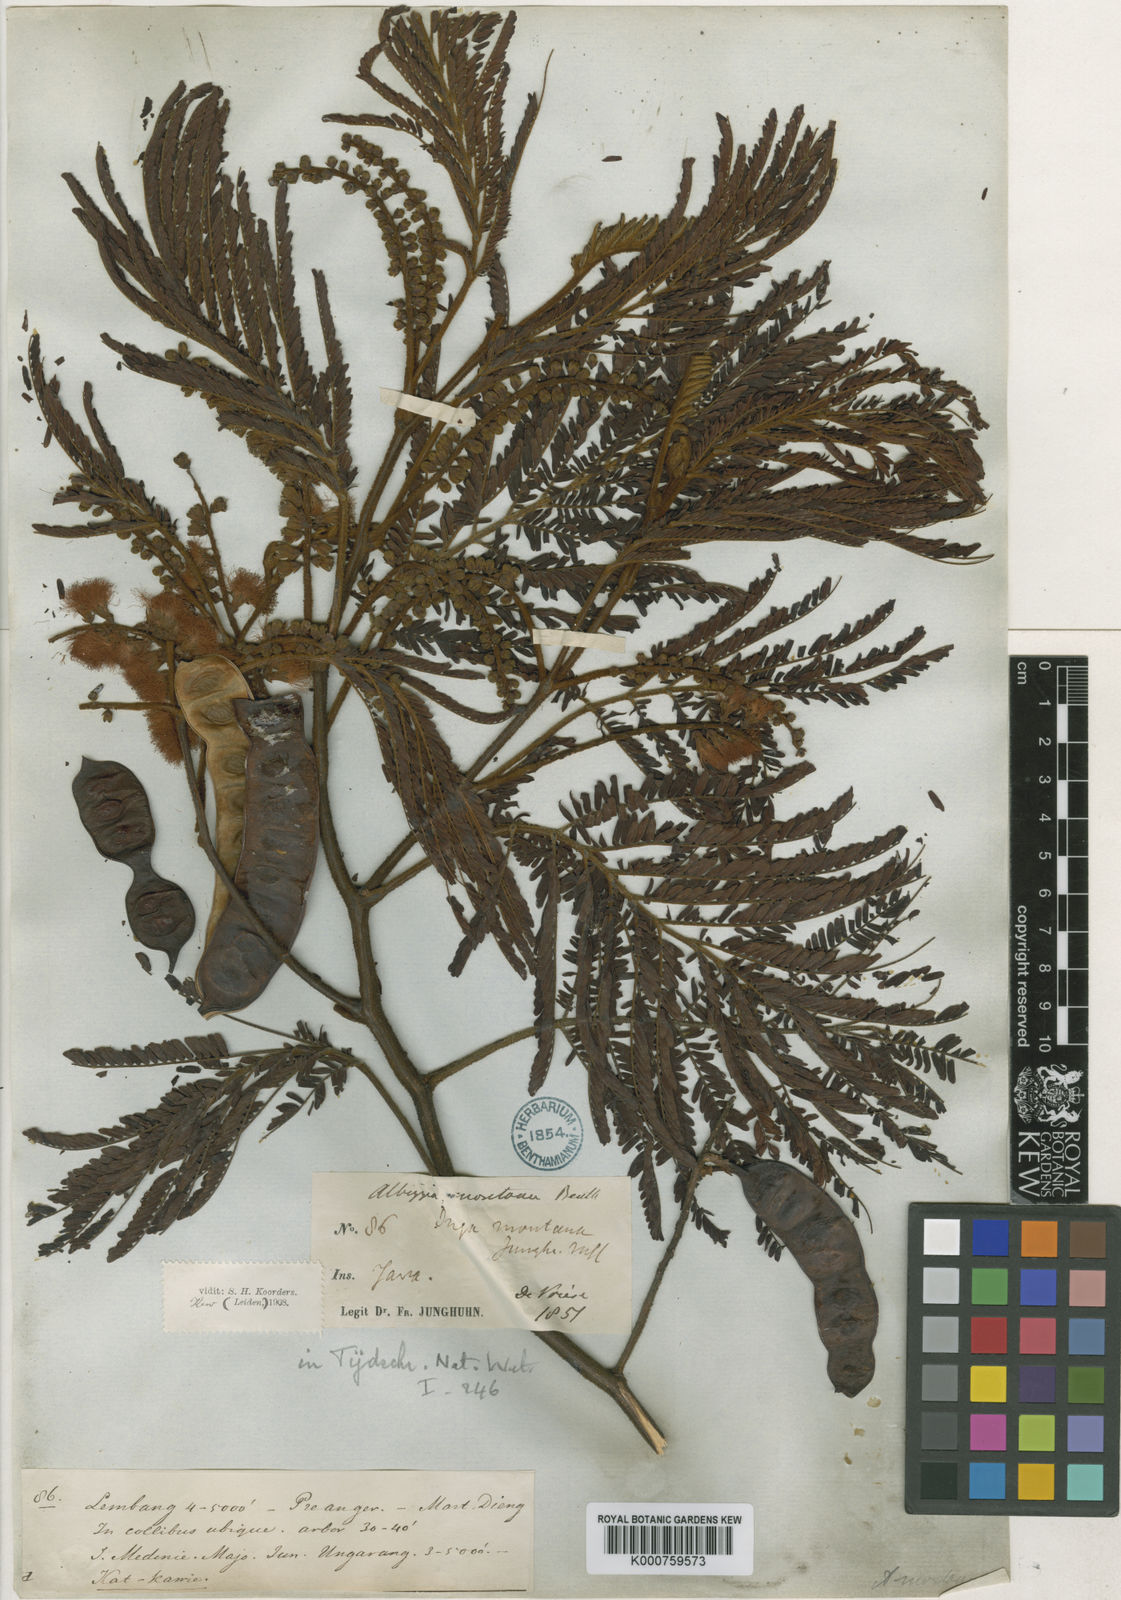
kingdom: Plantae
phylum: Tracheophyta
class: Magnoliopsida
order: Fabales
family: Fabaceae
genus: Paraserianthes
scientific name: Paraserianthes lophantha
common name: Plume albizia
